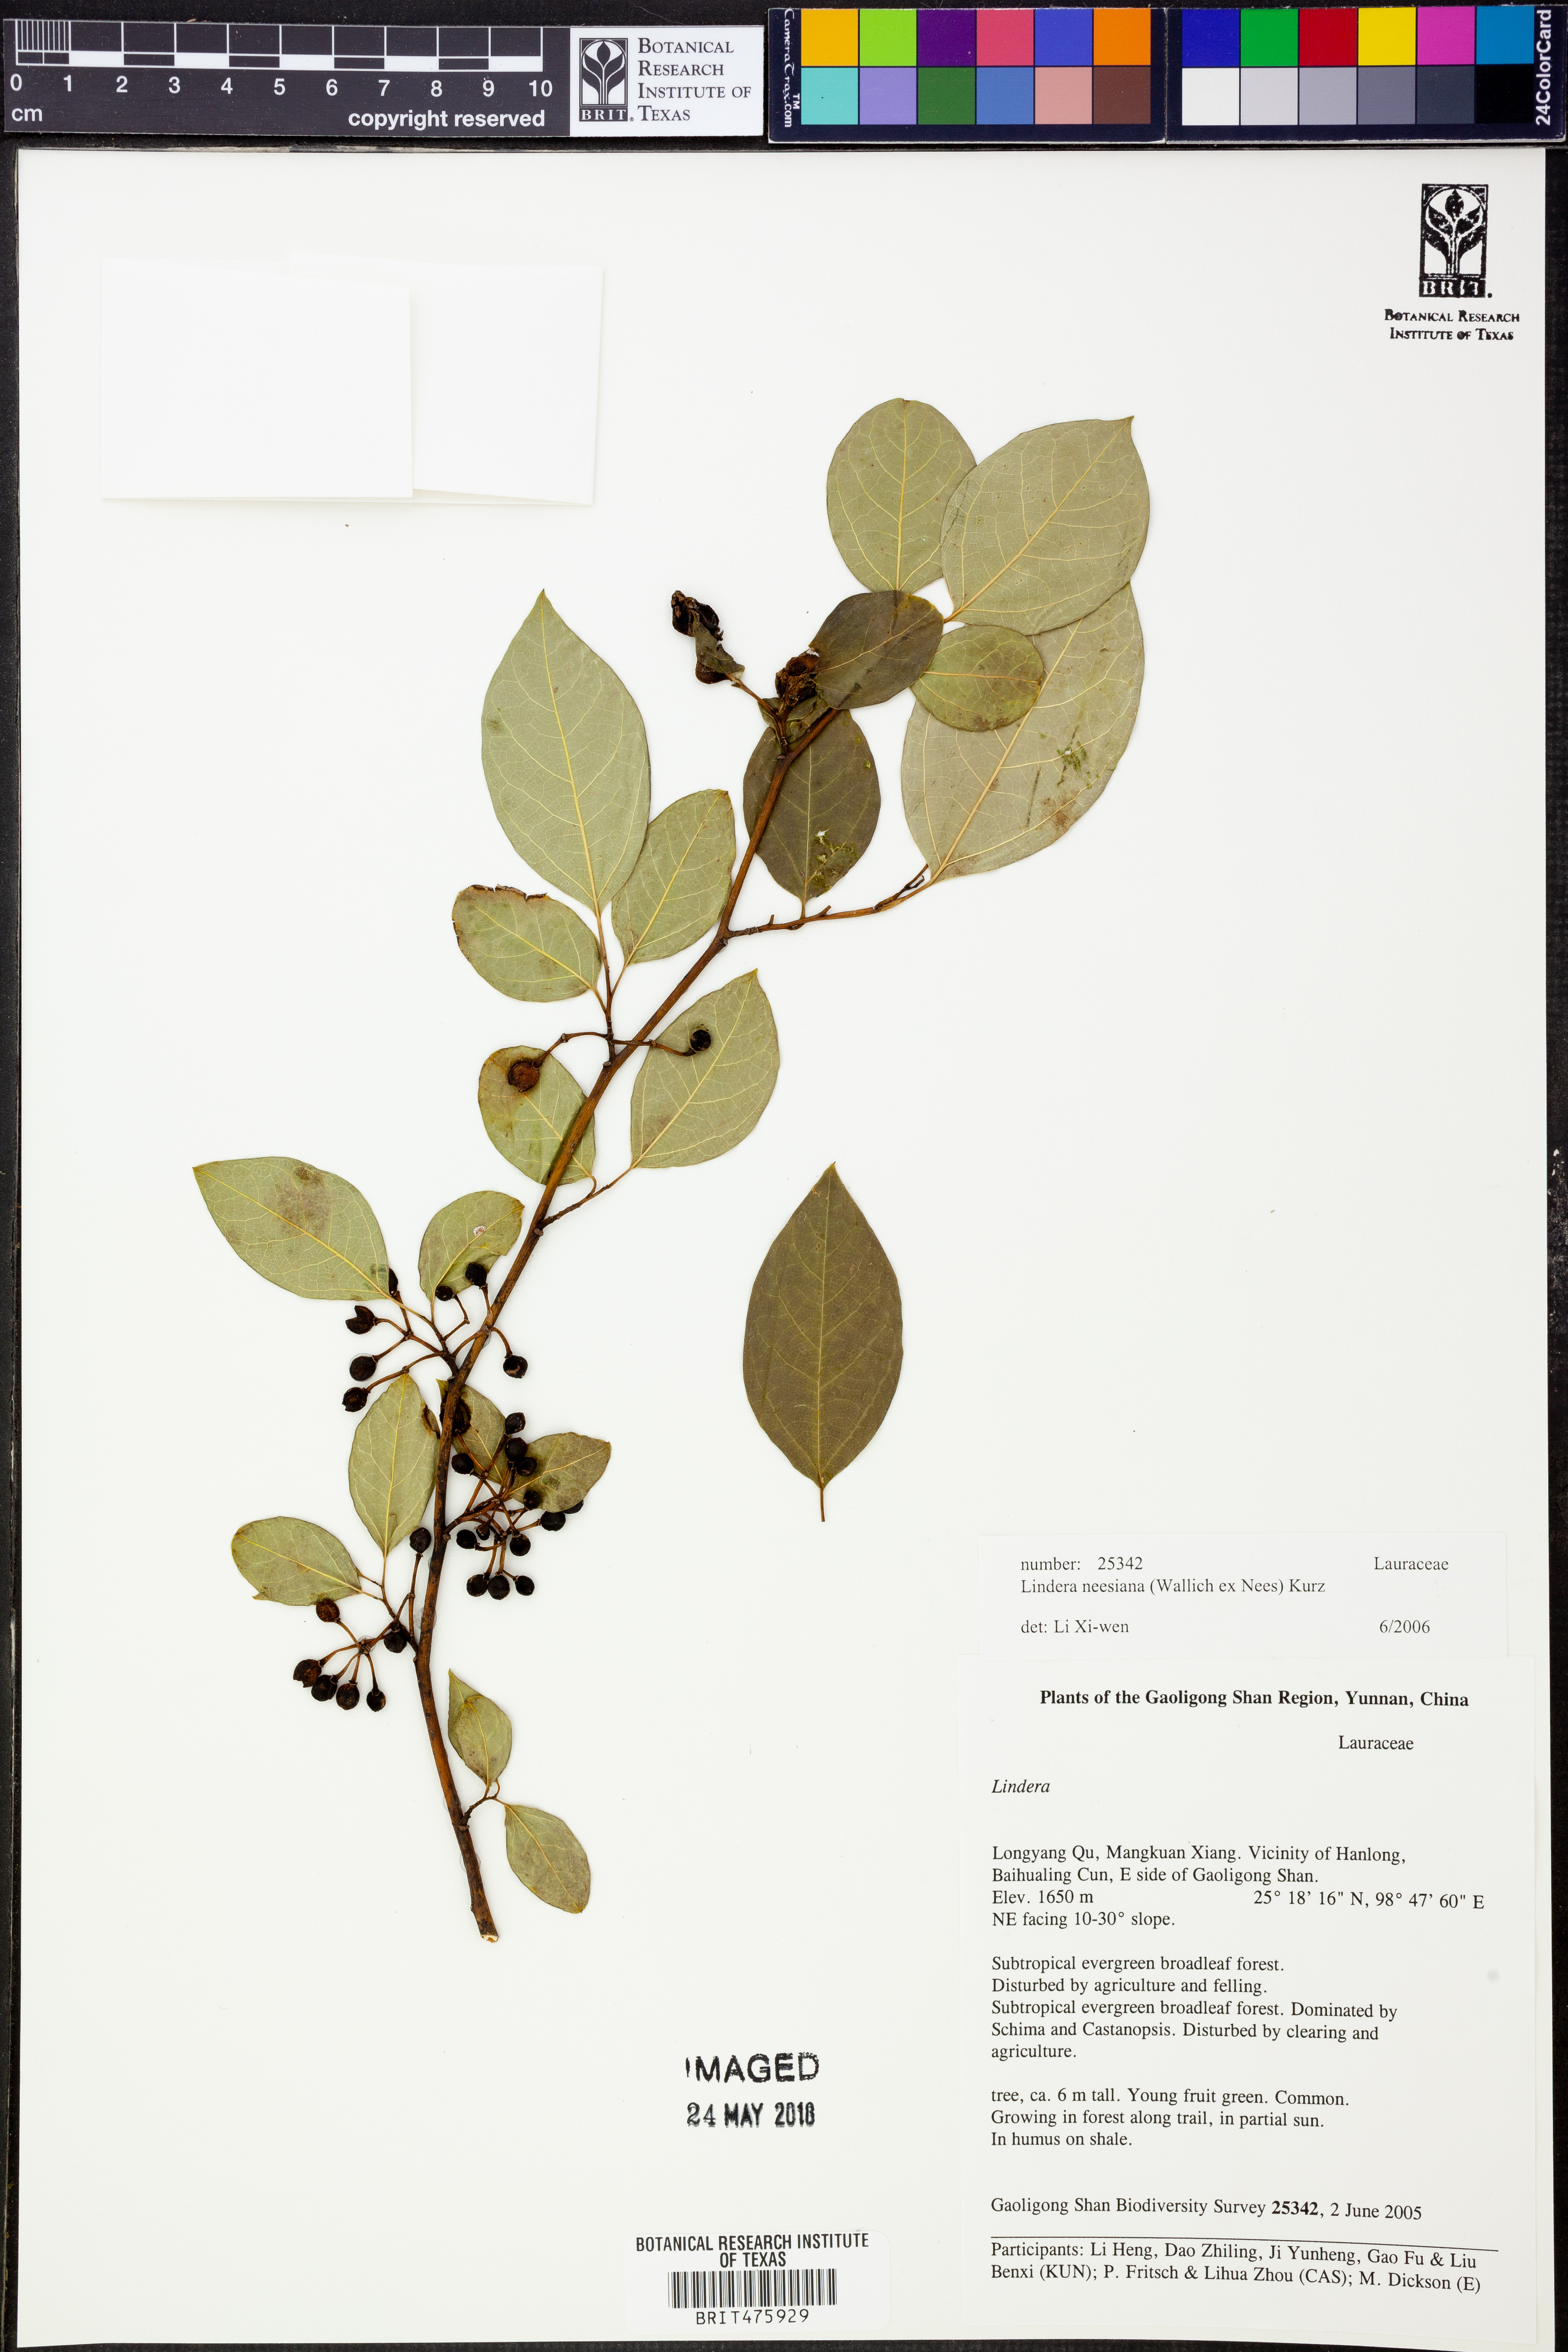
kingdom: Plantae
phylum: Tracheophyta
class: Magnoliopsida
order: Laurales
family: Lauraceae
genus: Lindera
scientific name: Lindera neesiana
